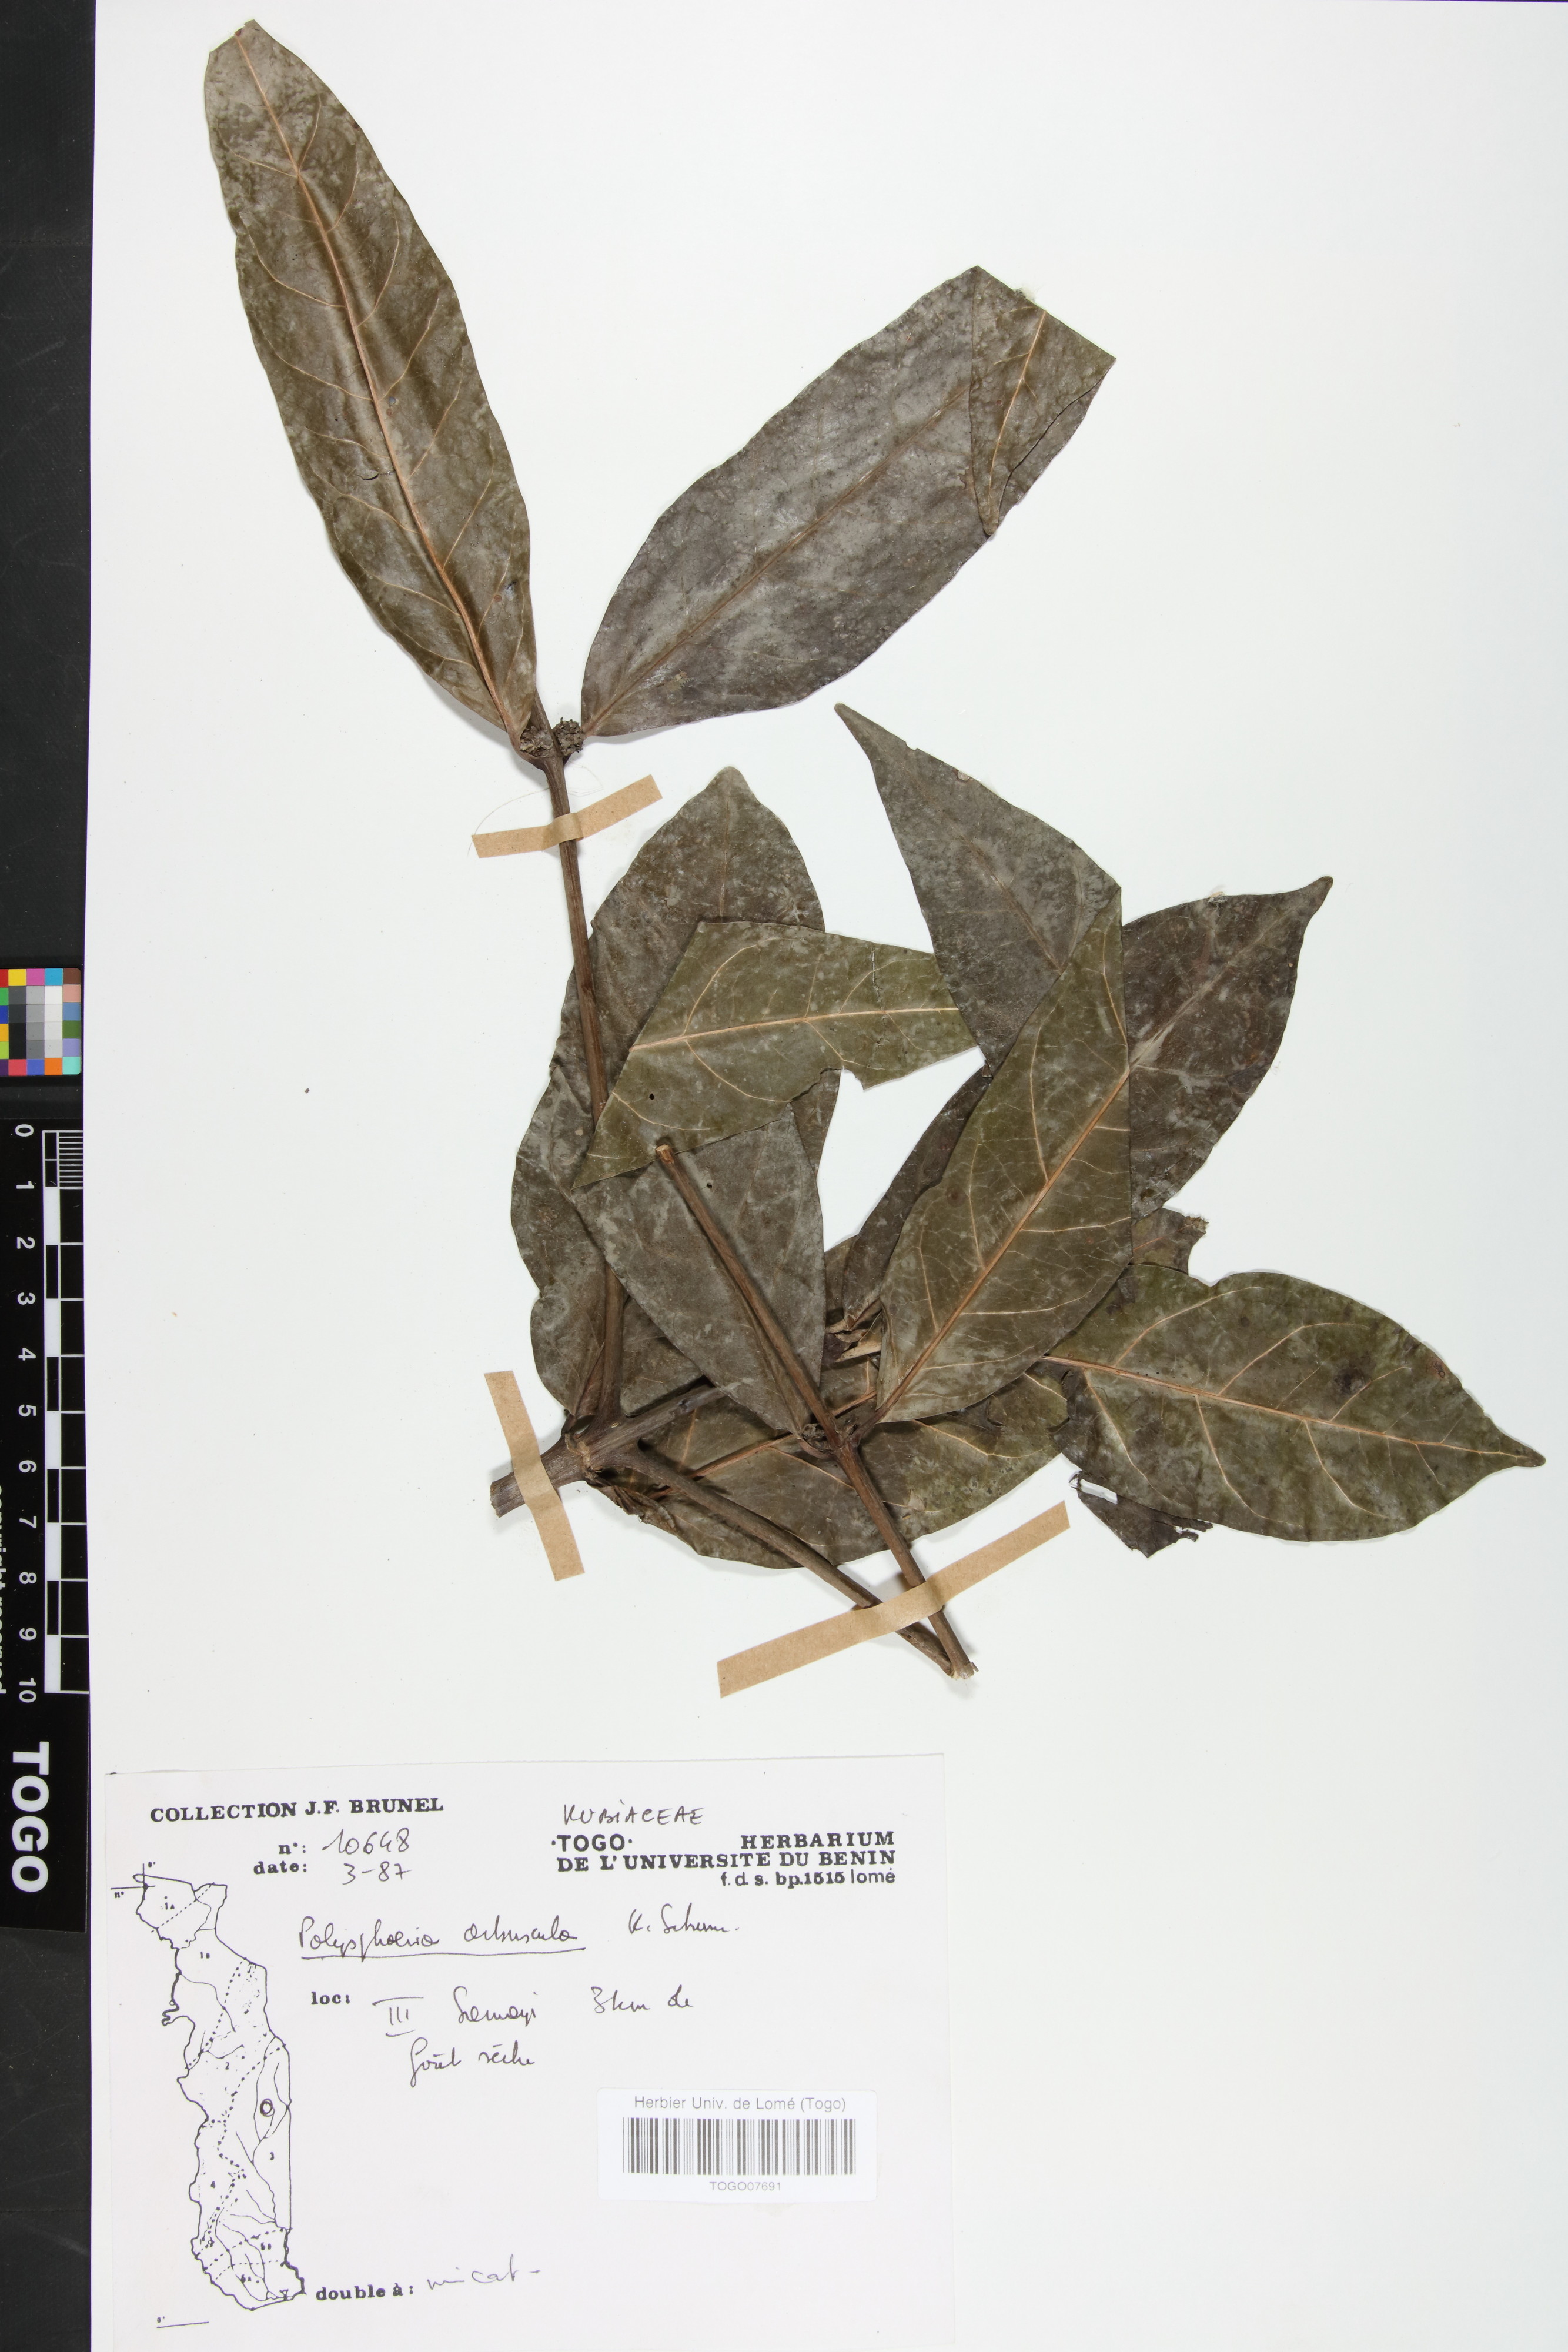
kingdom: Plantae
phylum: Tracheophyta
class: Magnoliopsida
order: Gentianales
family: Rubiaceae
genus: Polysphaeria
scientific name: Polysphaeria arbuscula
